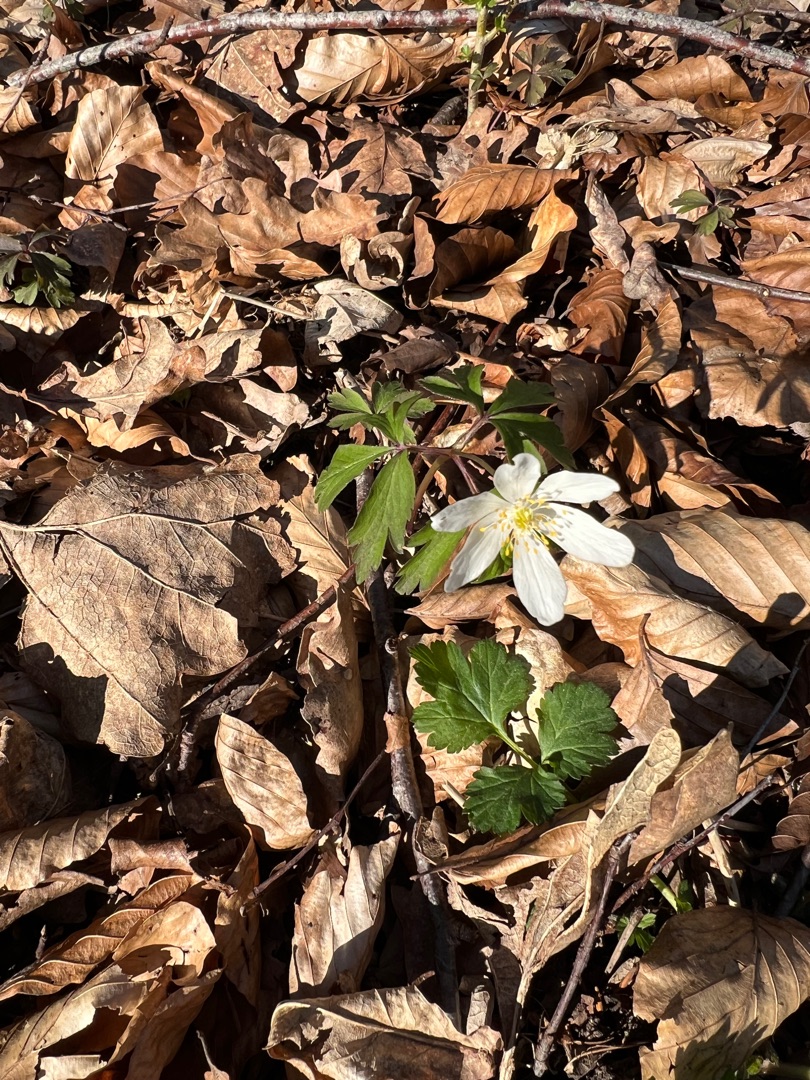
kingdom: Plantae
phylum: Tracheophyta
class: Magnoliopsida
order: Ranunculales
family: Ranunculaceae
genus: Anemone
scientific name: Anemone nemorosa
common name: Hvid anemone
